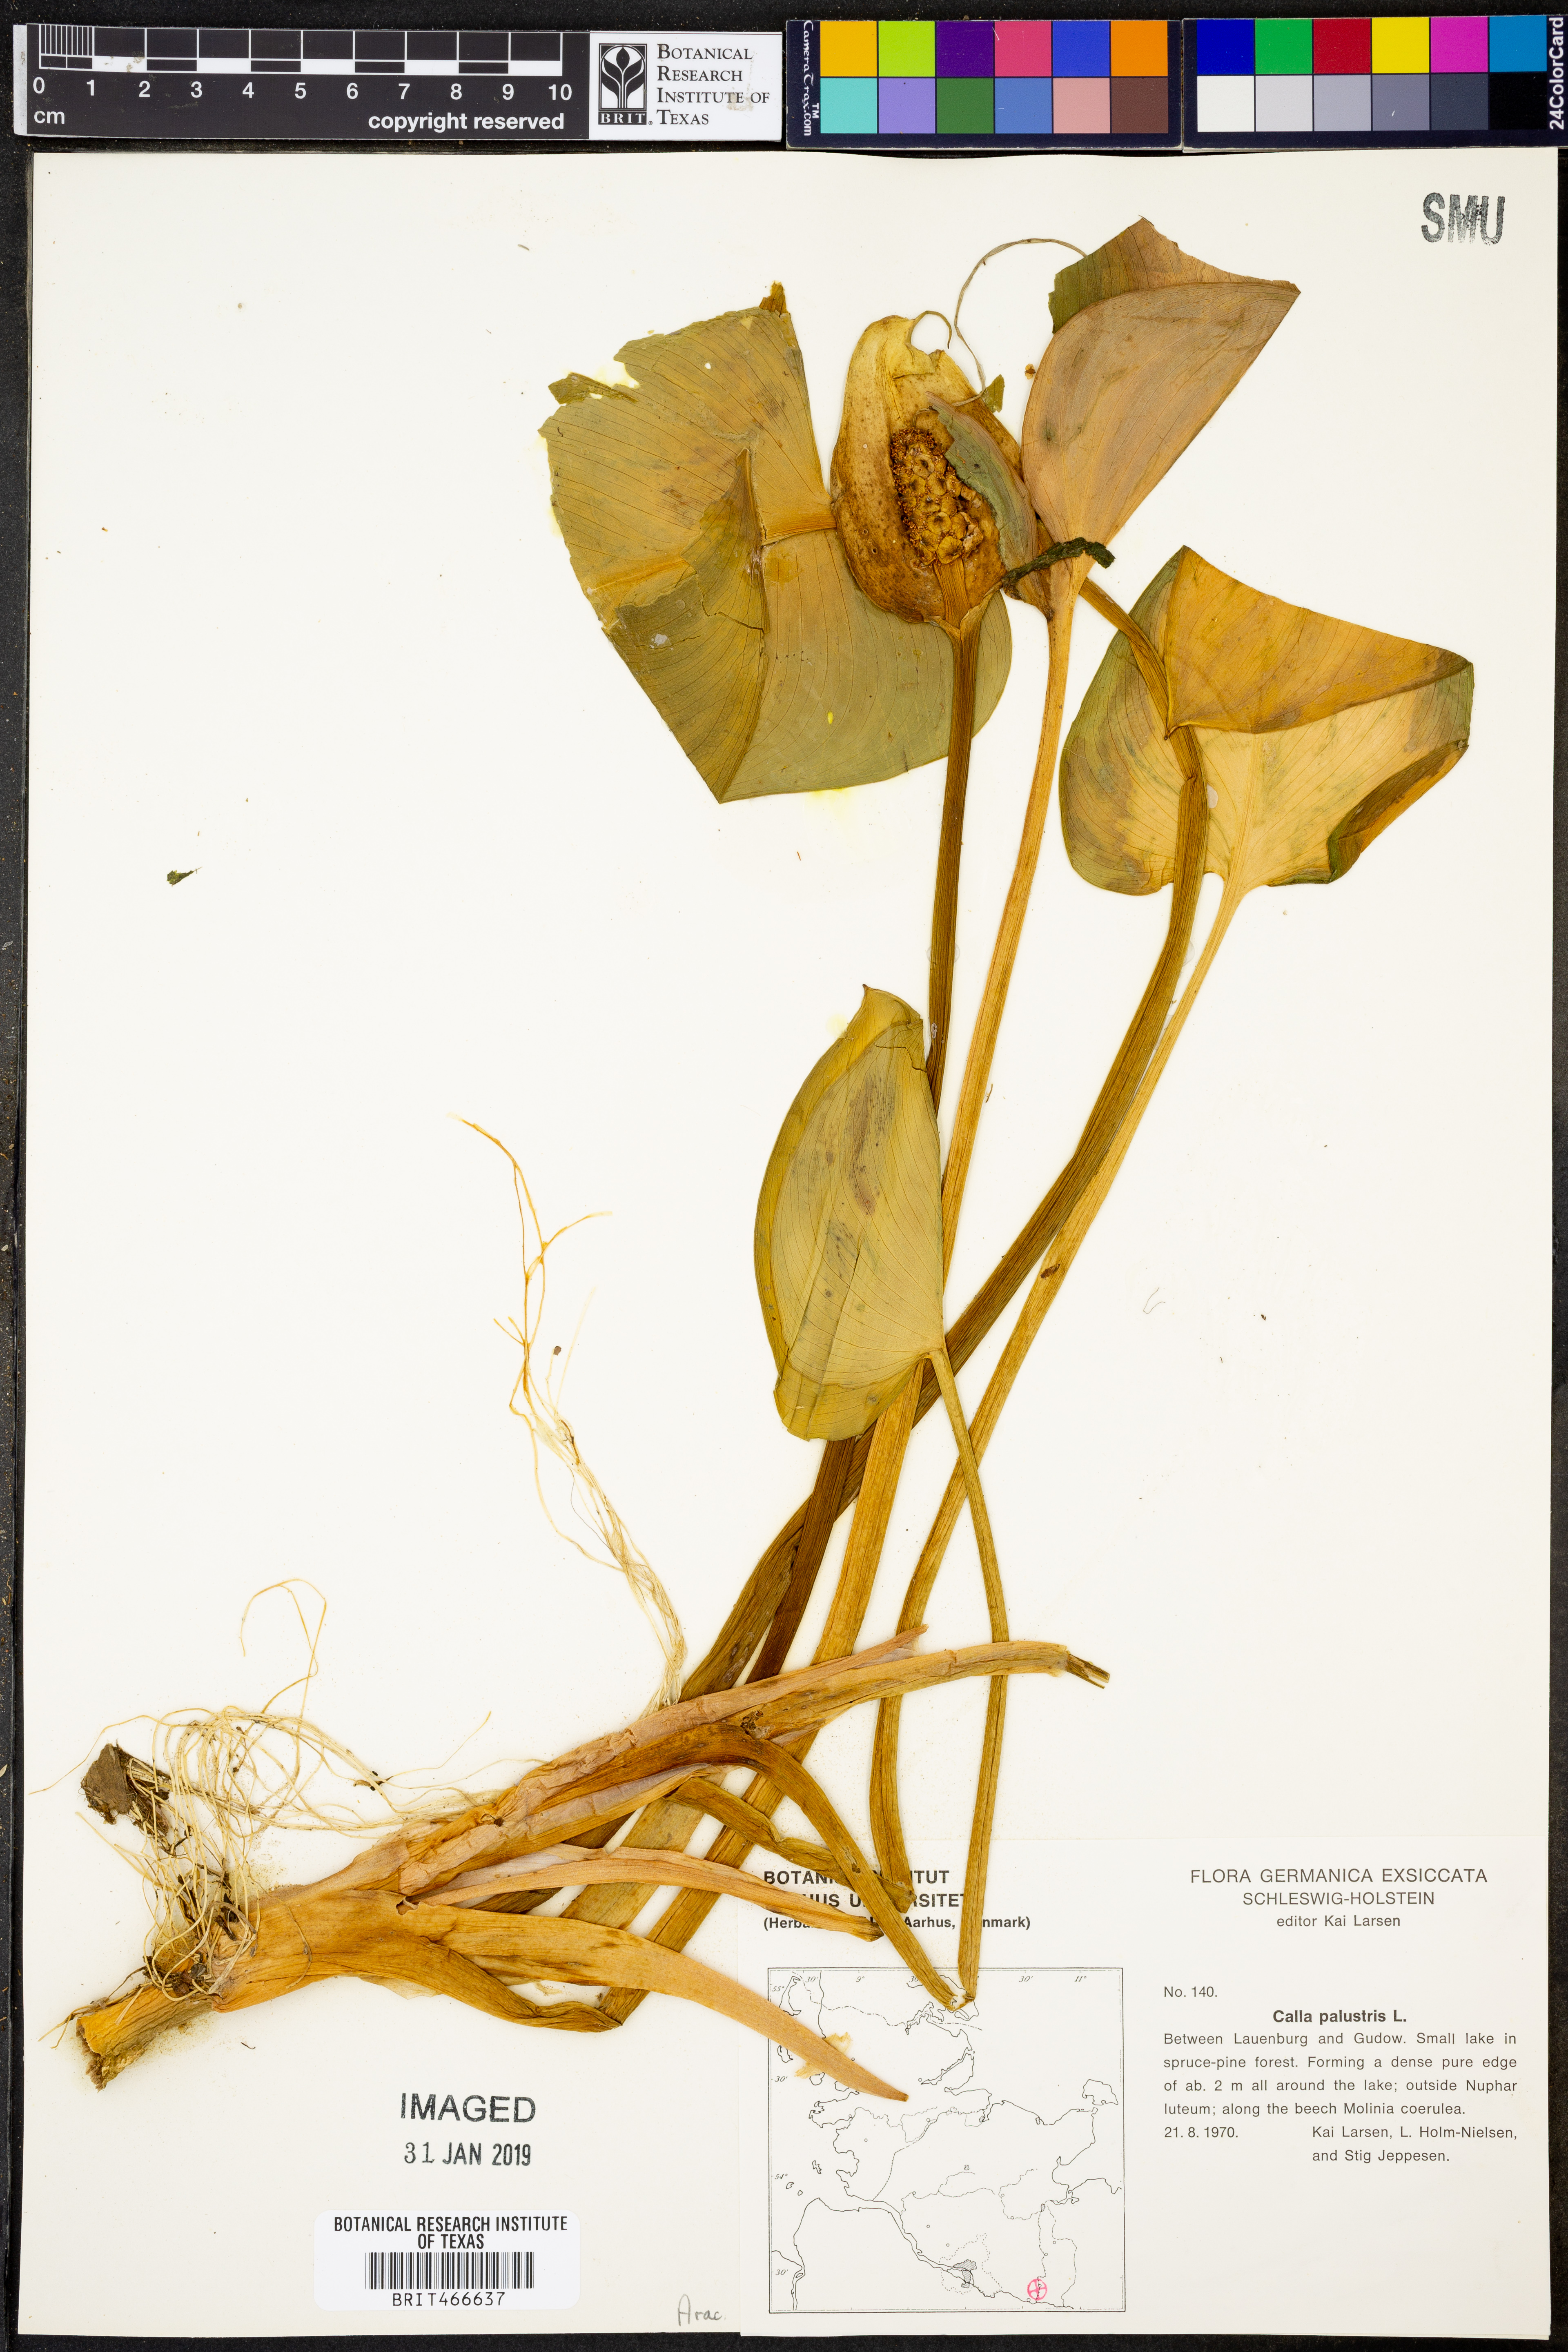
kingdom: Plantae
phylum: Tracheophyta
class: Liliopsida
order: Alismatales
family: Araceae
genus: Calla
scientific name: Calla palustris
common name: Bog arum
